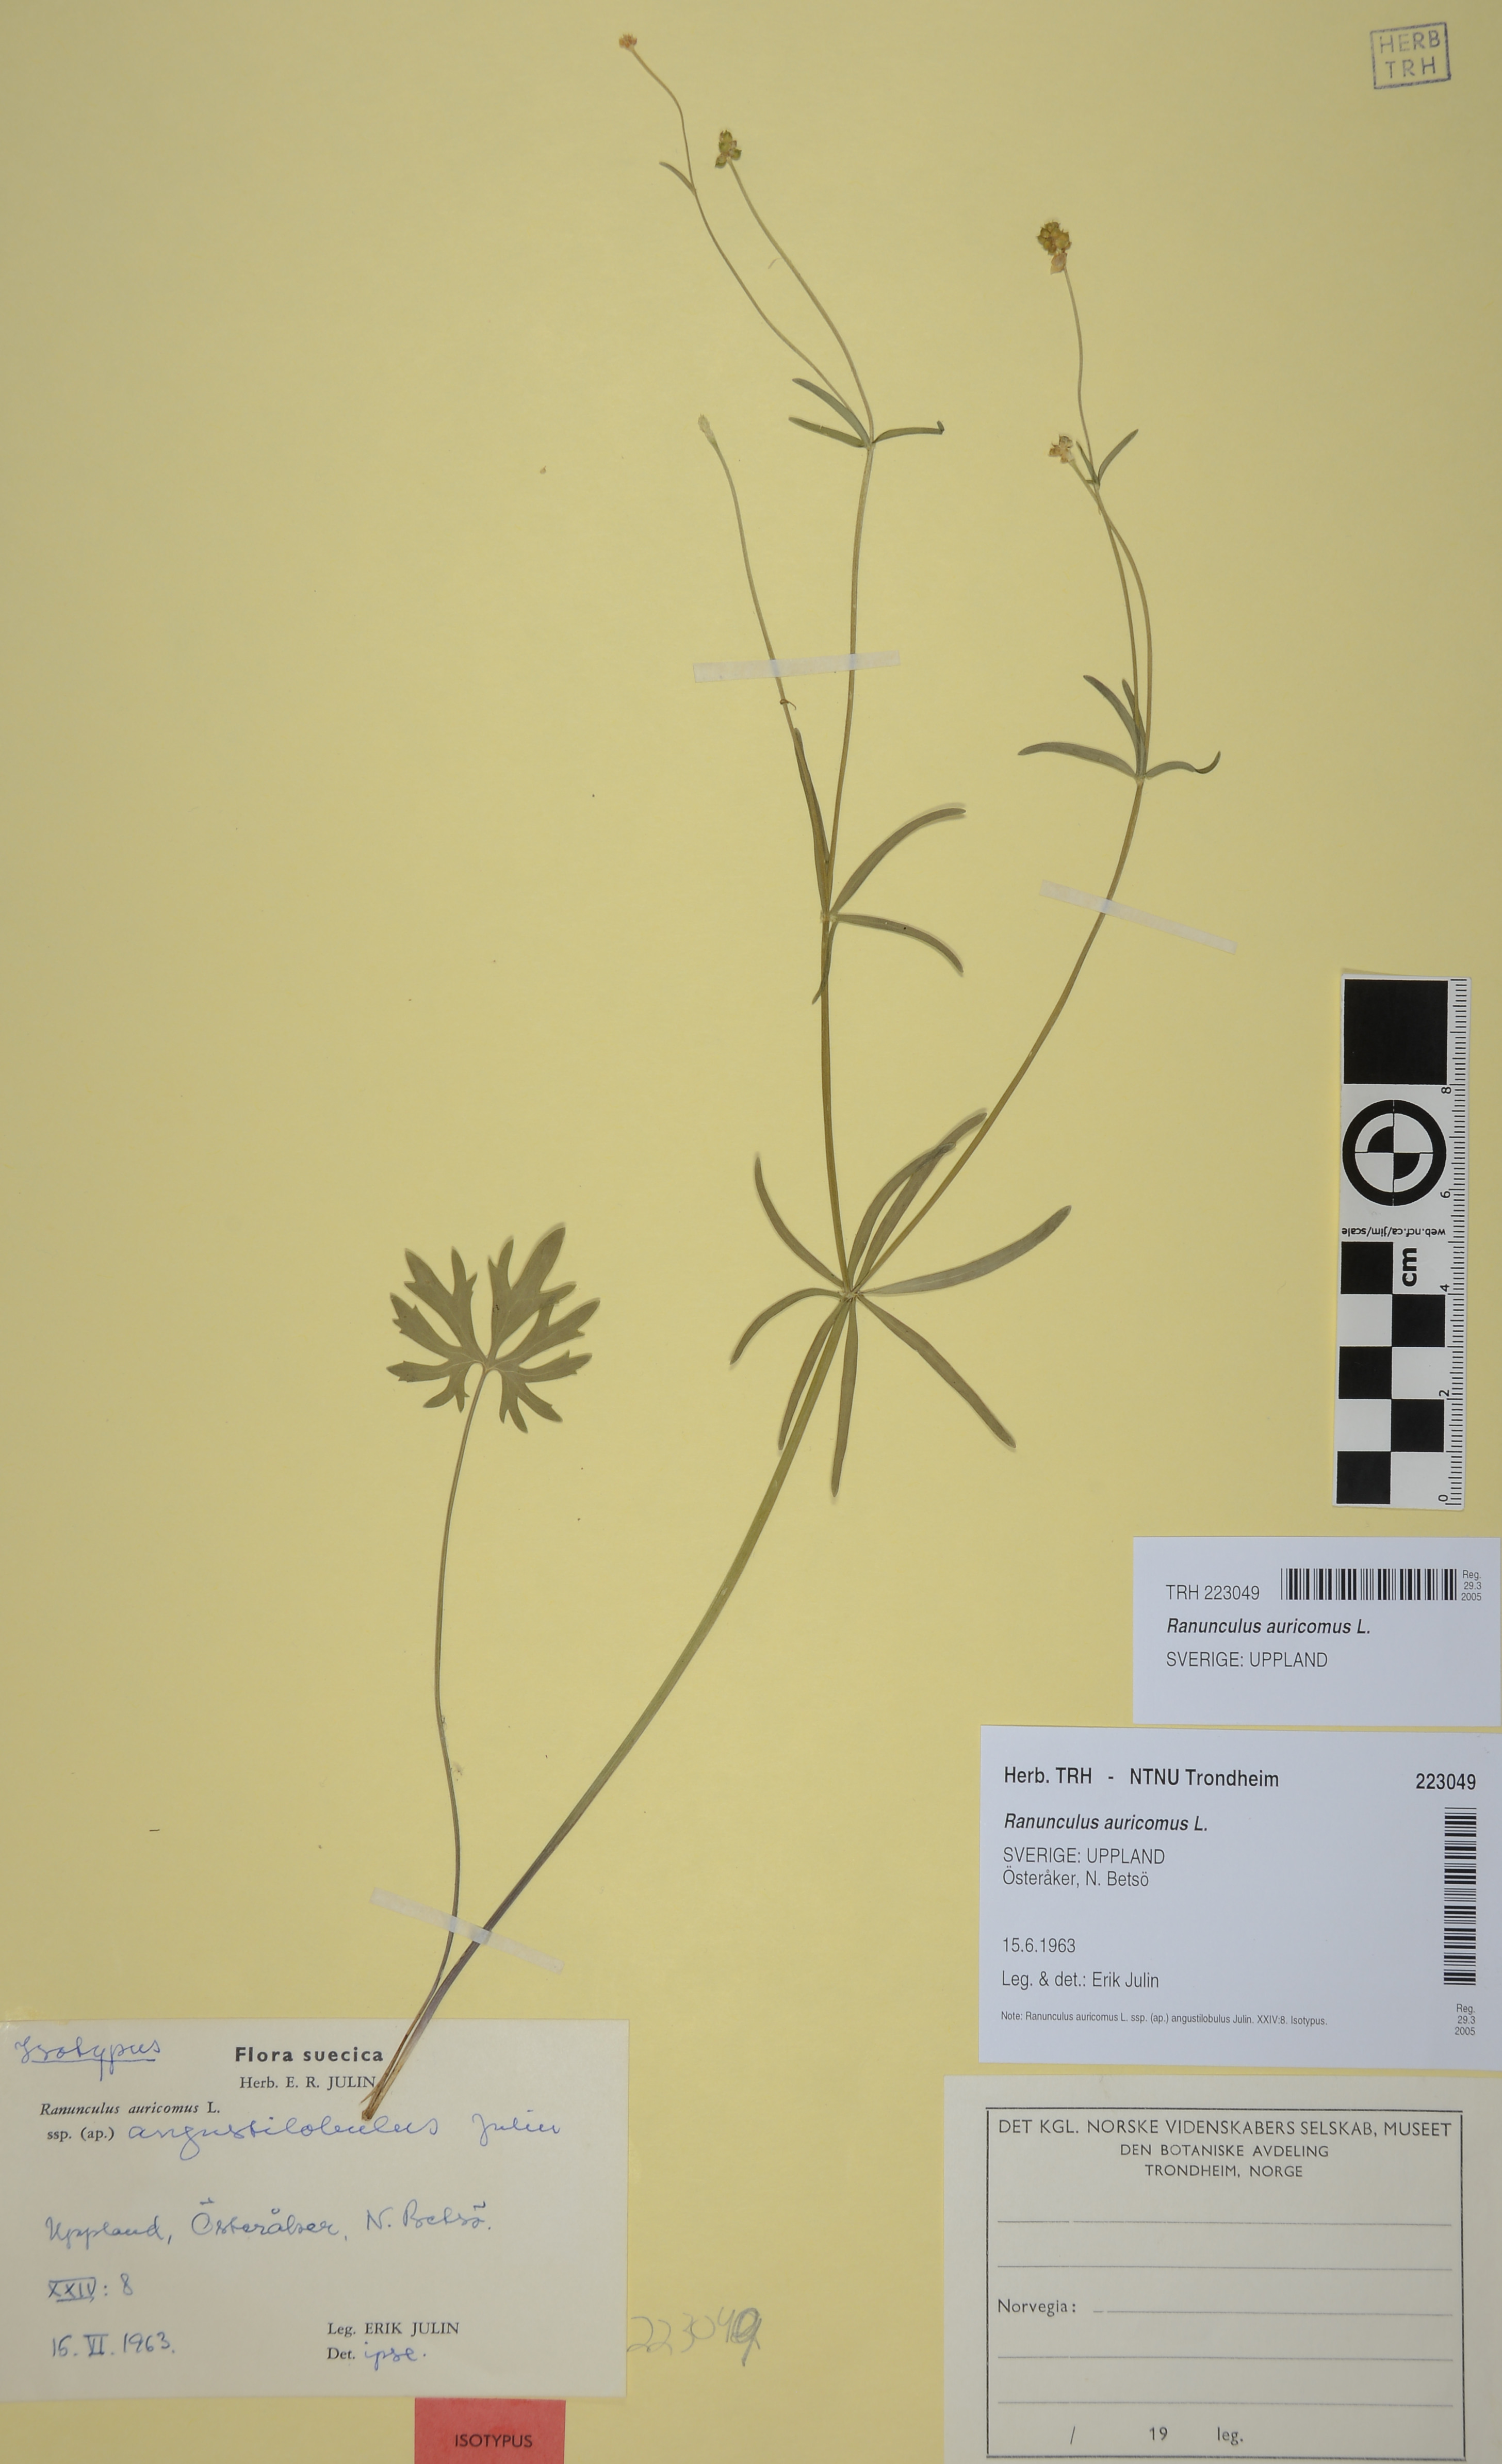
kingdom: Plantae
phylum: Tracheophyta
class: Magnoliopsida
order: Ranunculales
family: Ranunculaceae
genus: Ranunculus
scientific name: Ranunculus auricomus
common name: Goldilocks buttercup
